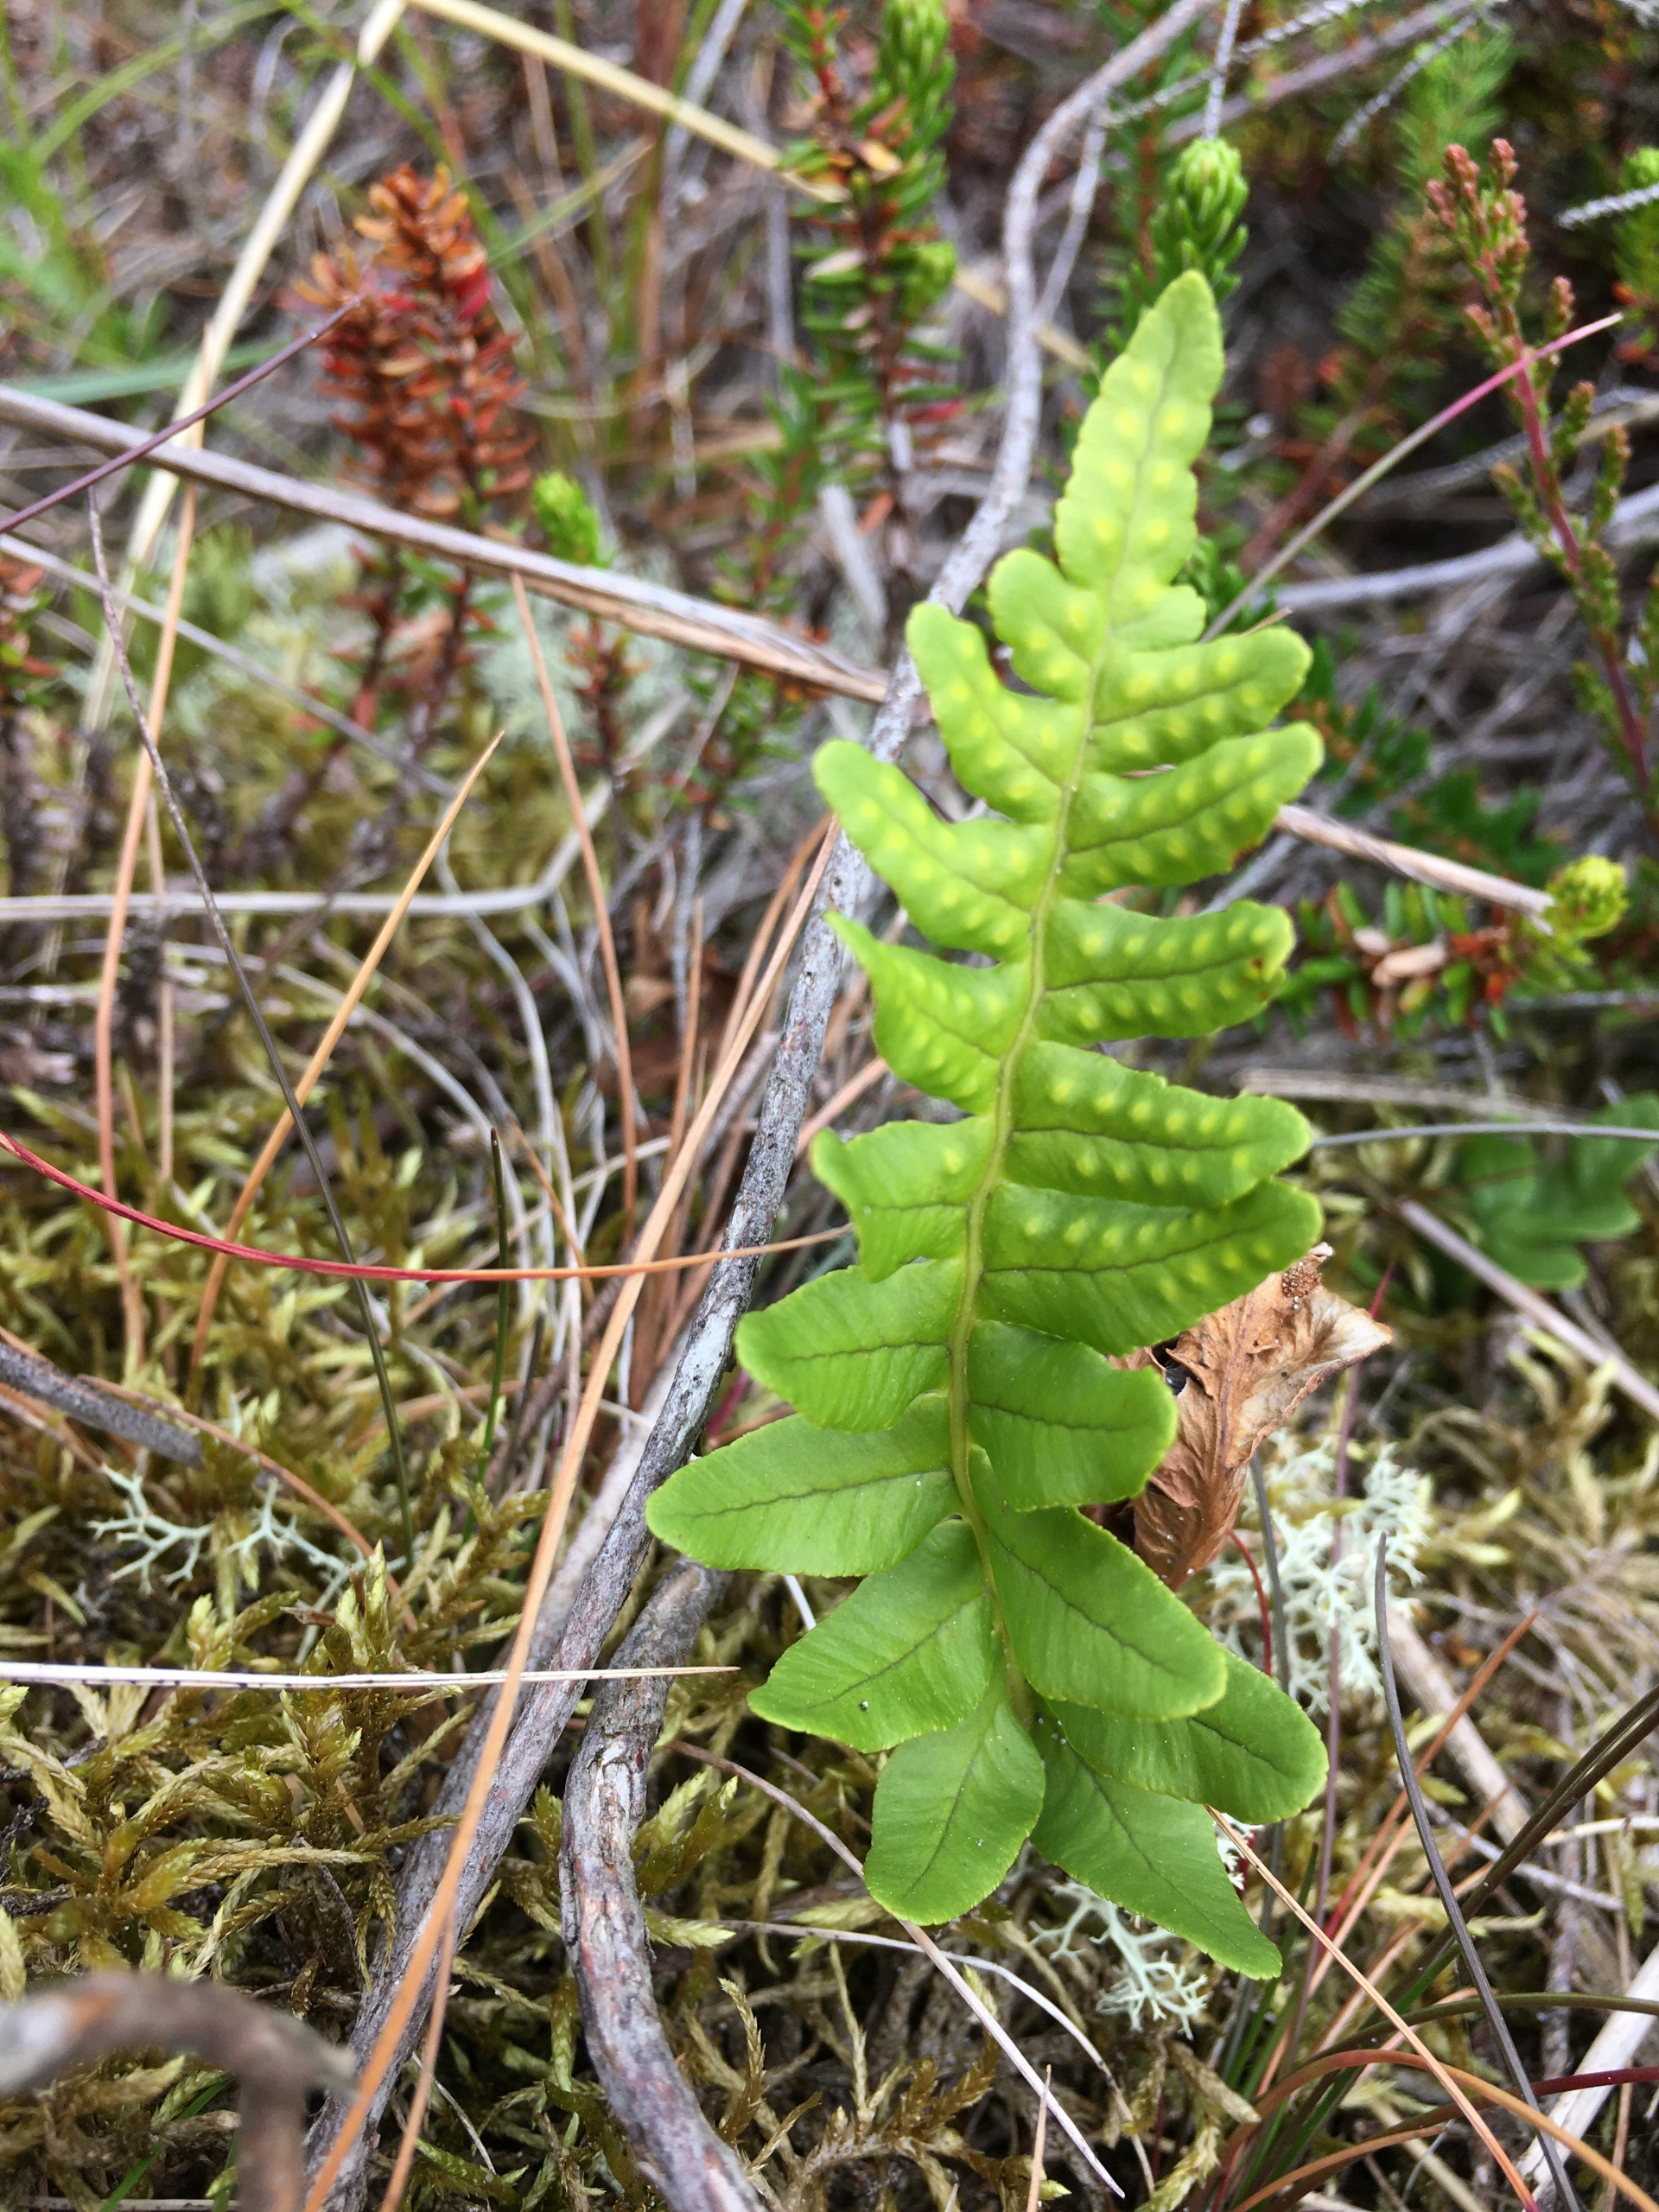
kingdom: Plantae
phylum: Tracheophyta
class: Polypodiopsida
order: Polypodiales
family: Polypodiaceae
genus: Polypodium
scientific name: Polypodium vulgare
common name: Almindelig engelsød
